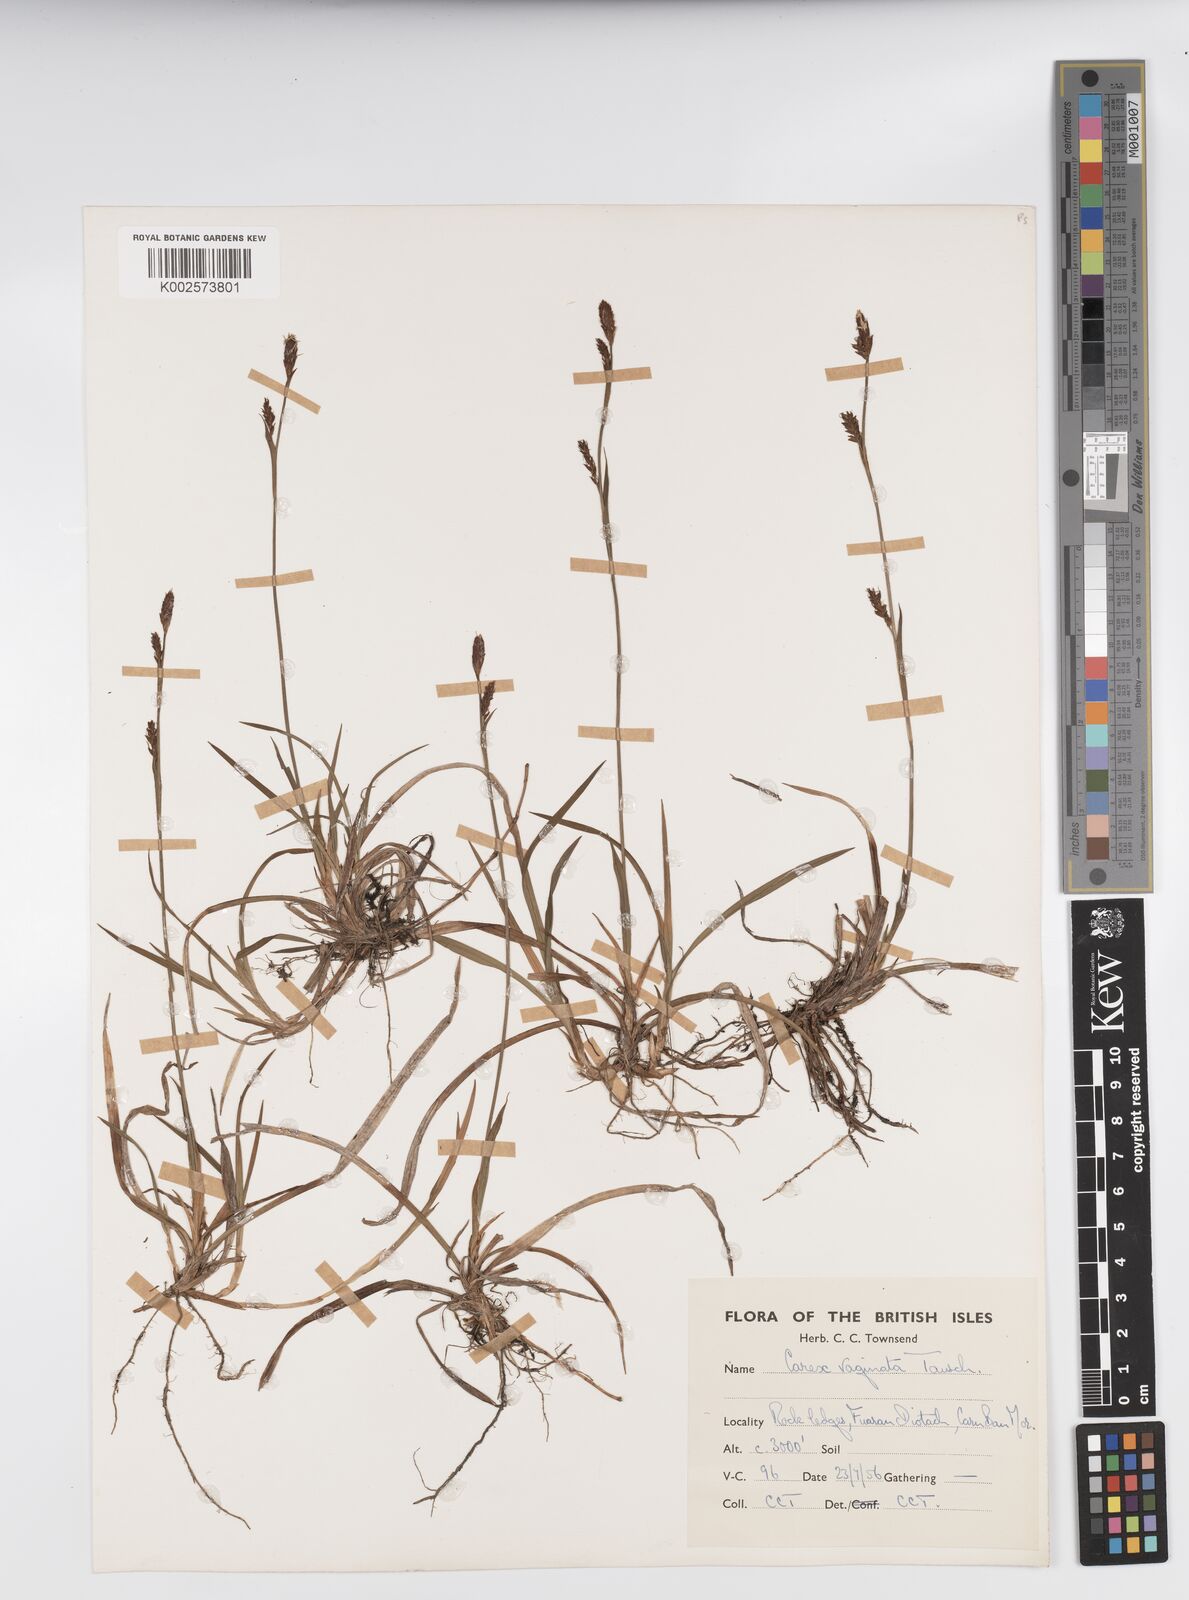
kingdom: Plantae
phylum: Tracheophyta
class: Liliopsida
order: Poales
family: Cyperaceae
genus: Carex
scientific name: Carex vaginata
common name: Sheathed sedge
